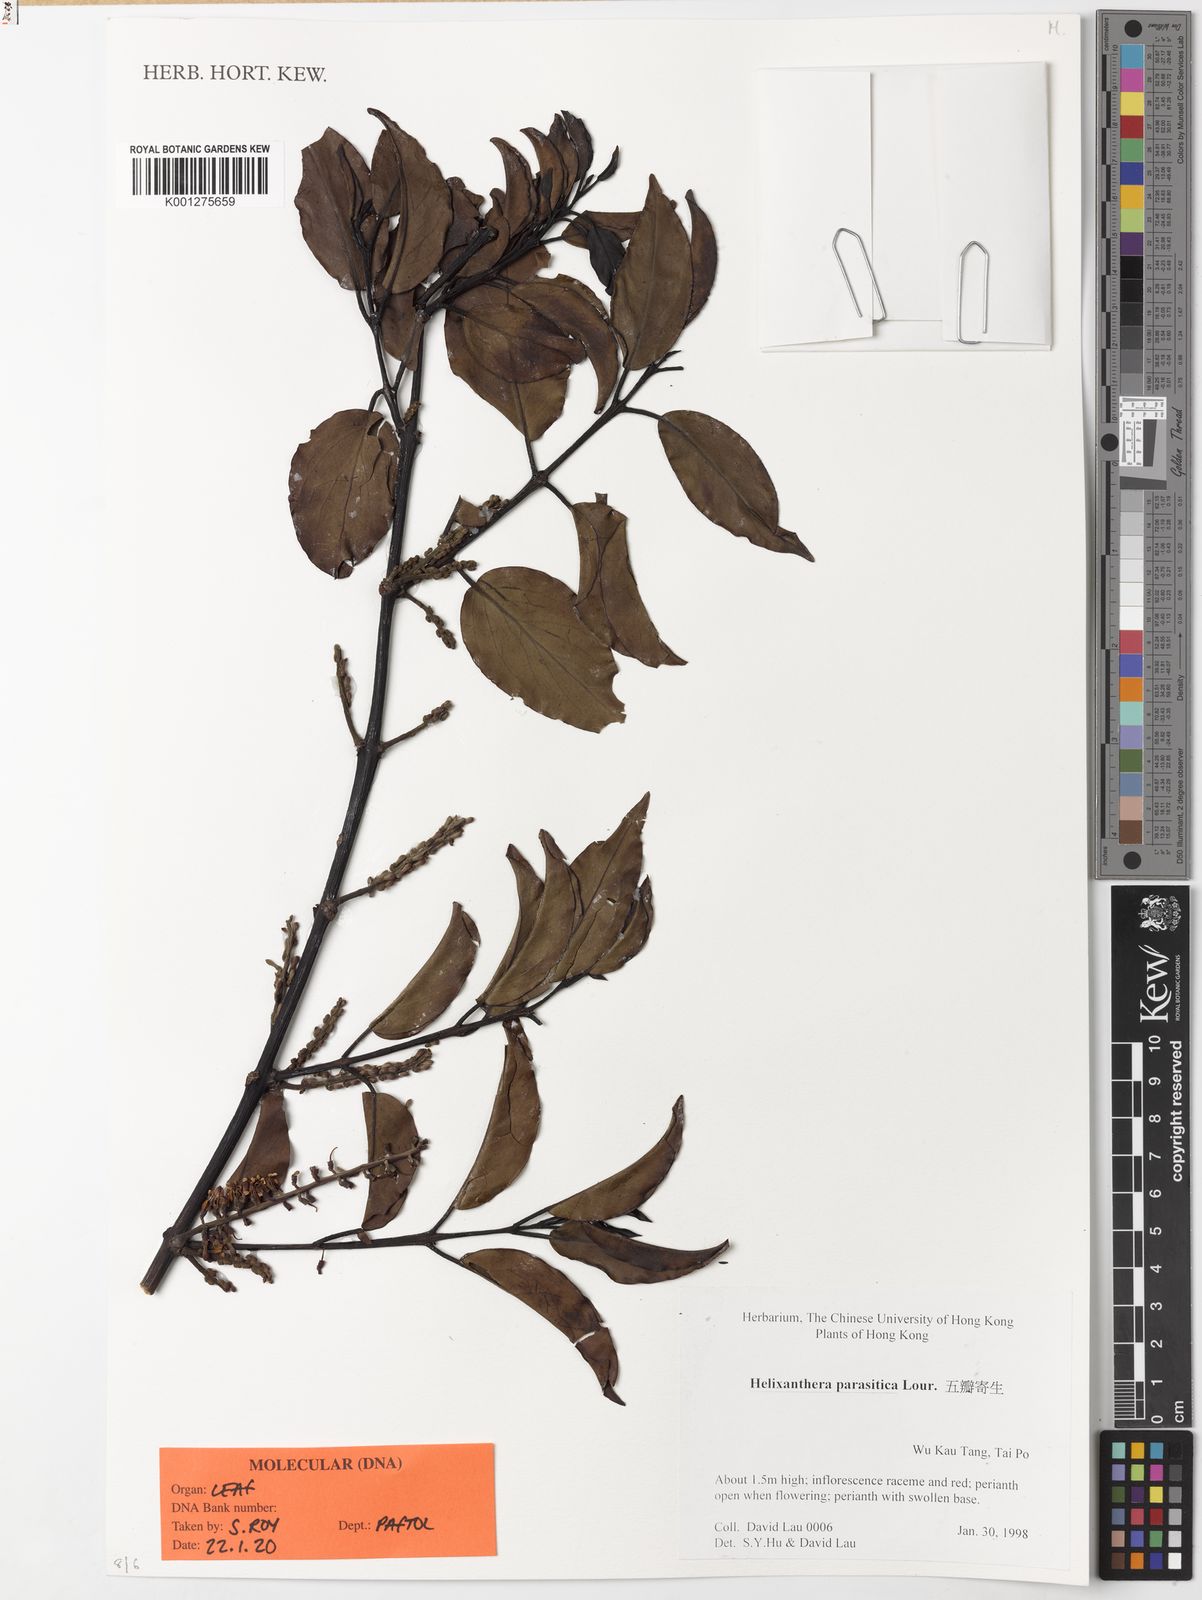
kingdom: Plantae
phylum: Tracheophyta
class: Magnoliopsida
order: Santalales
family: Loranthaceae
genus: Helixanthera
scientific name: Helixanthera parasitica
